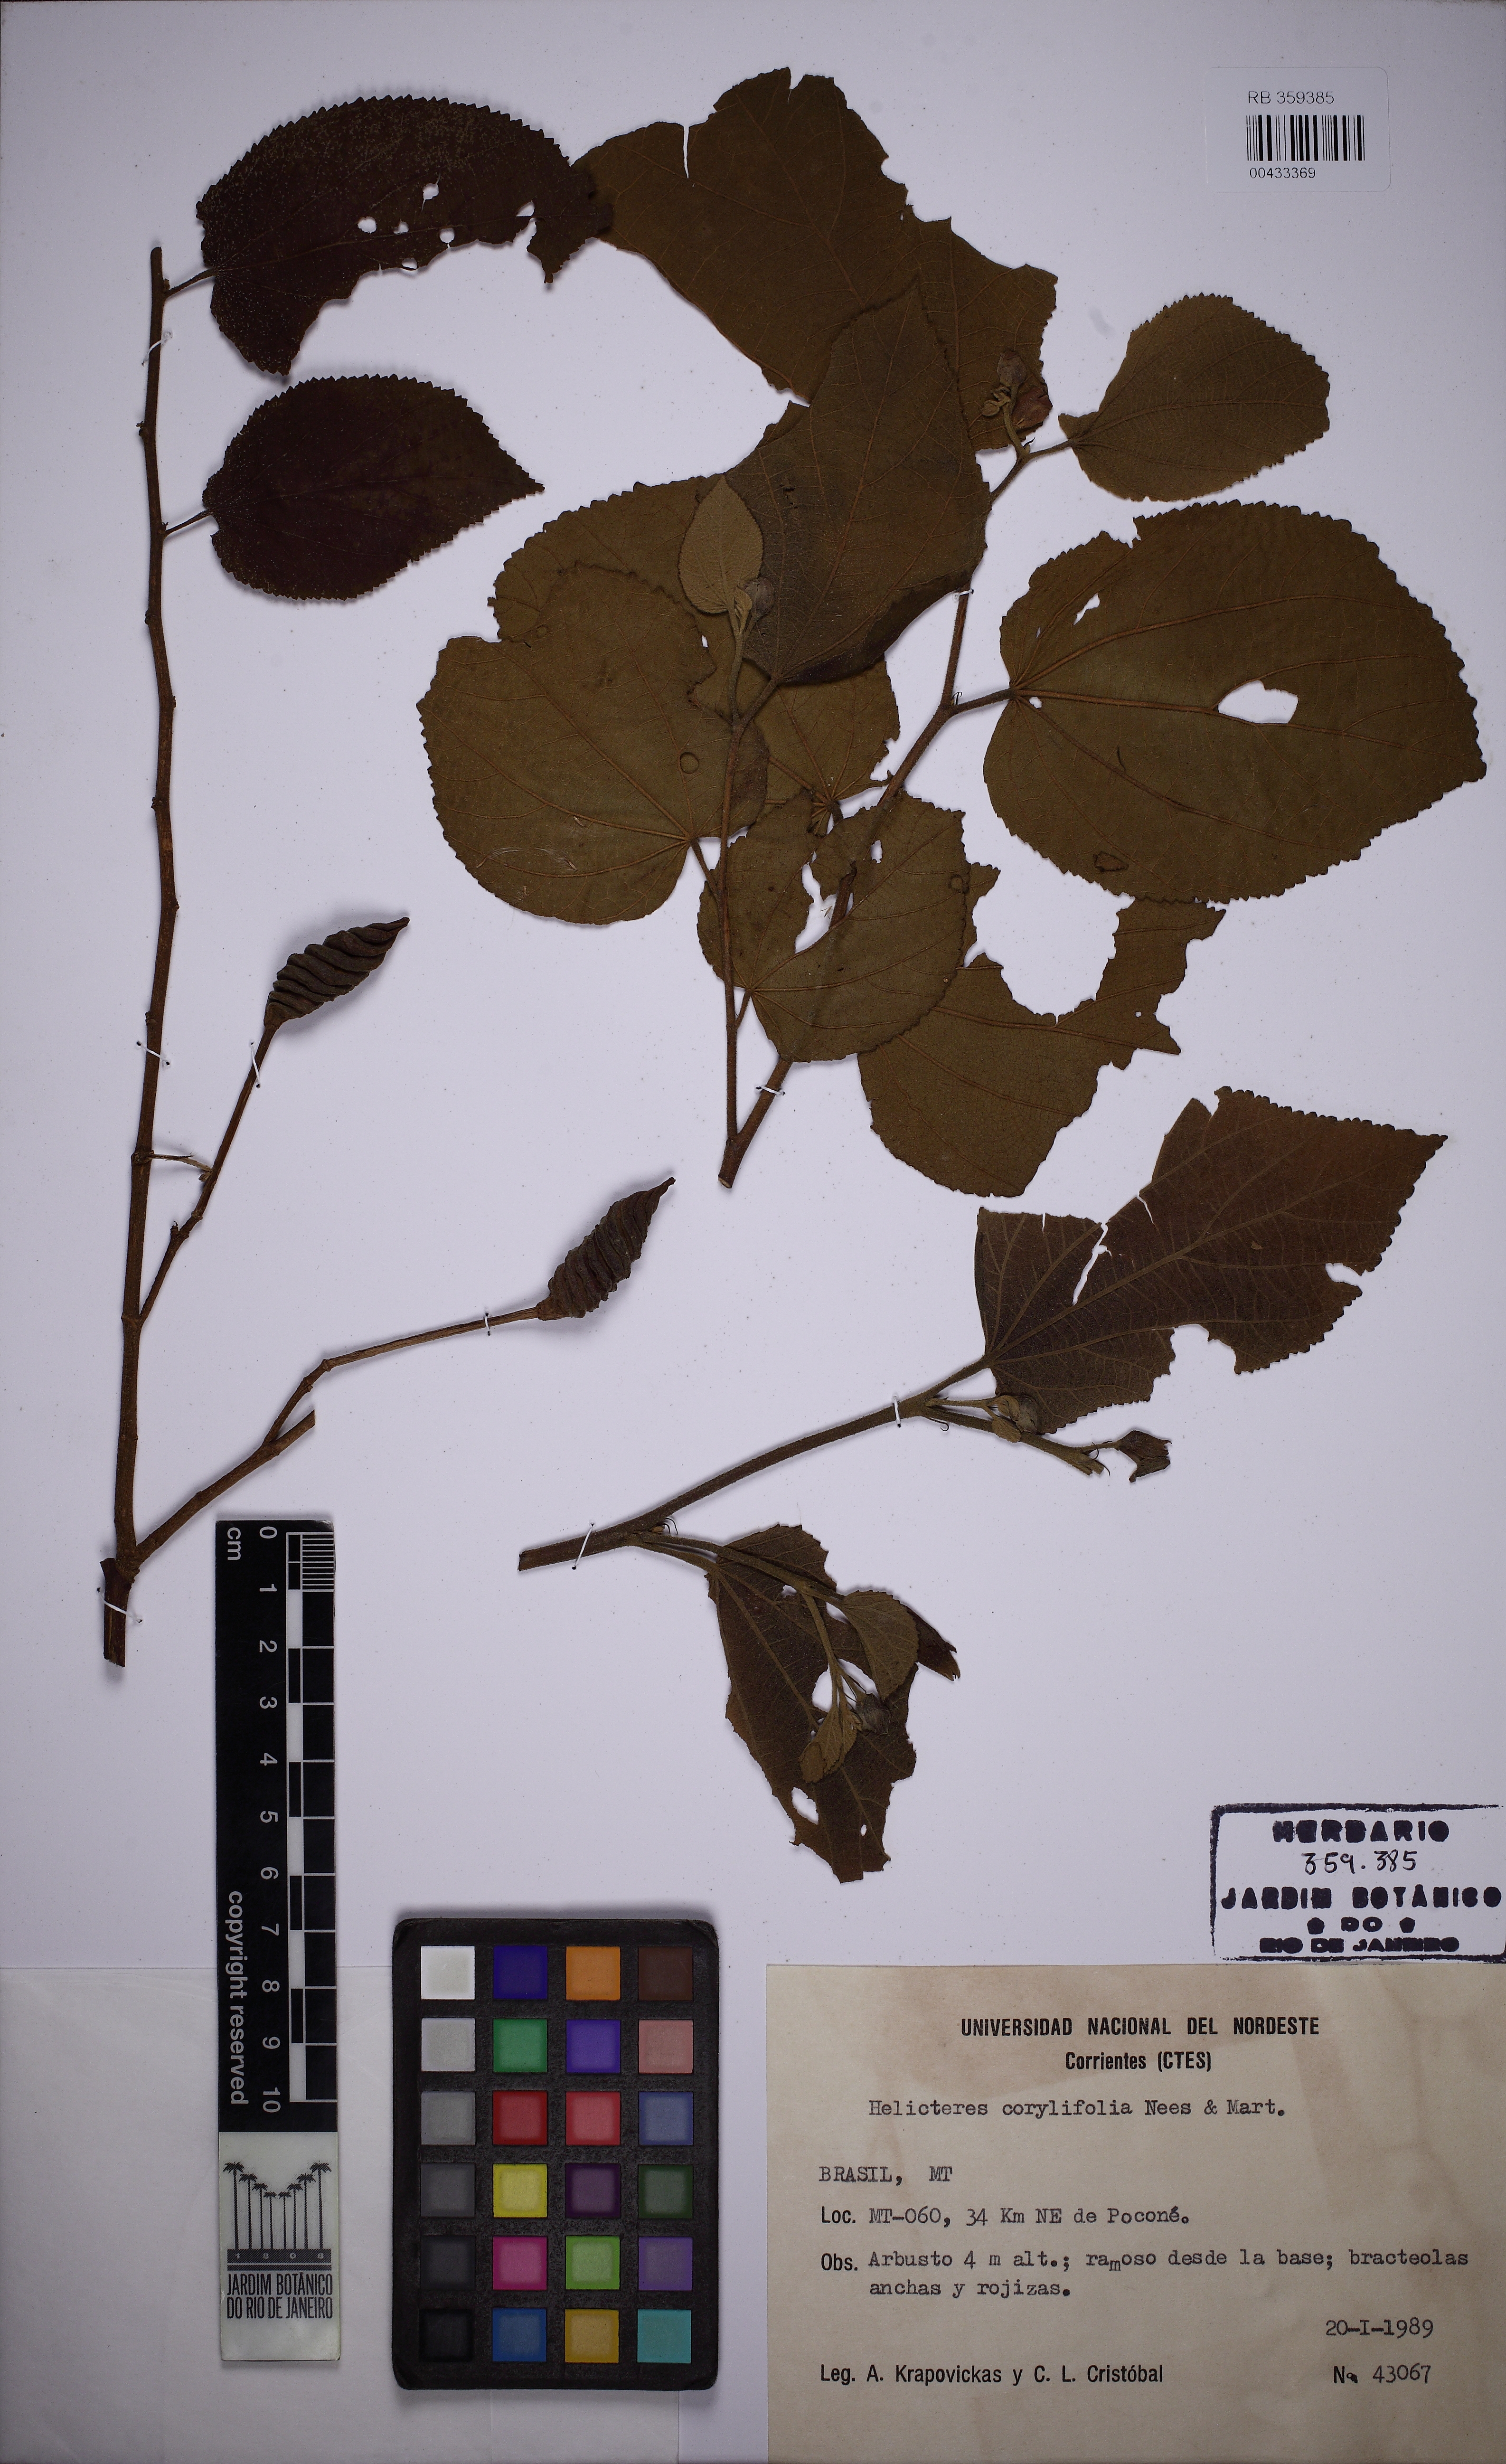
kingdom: Plantae
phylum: Tracheophyta
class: Magnoliopsida
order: Malvales
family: Malvaceae
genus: Helicteres
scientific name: Helicteres corylifolia
